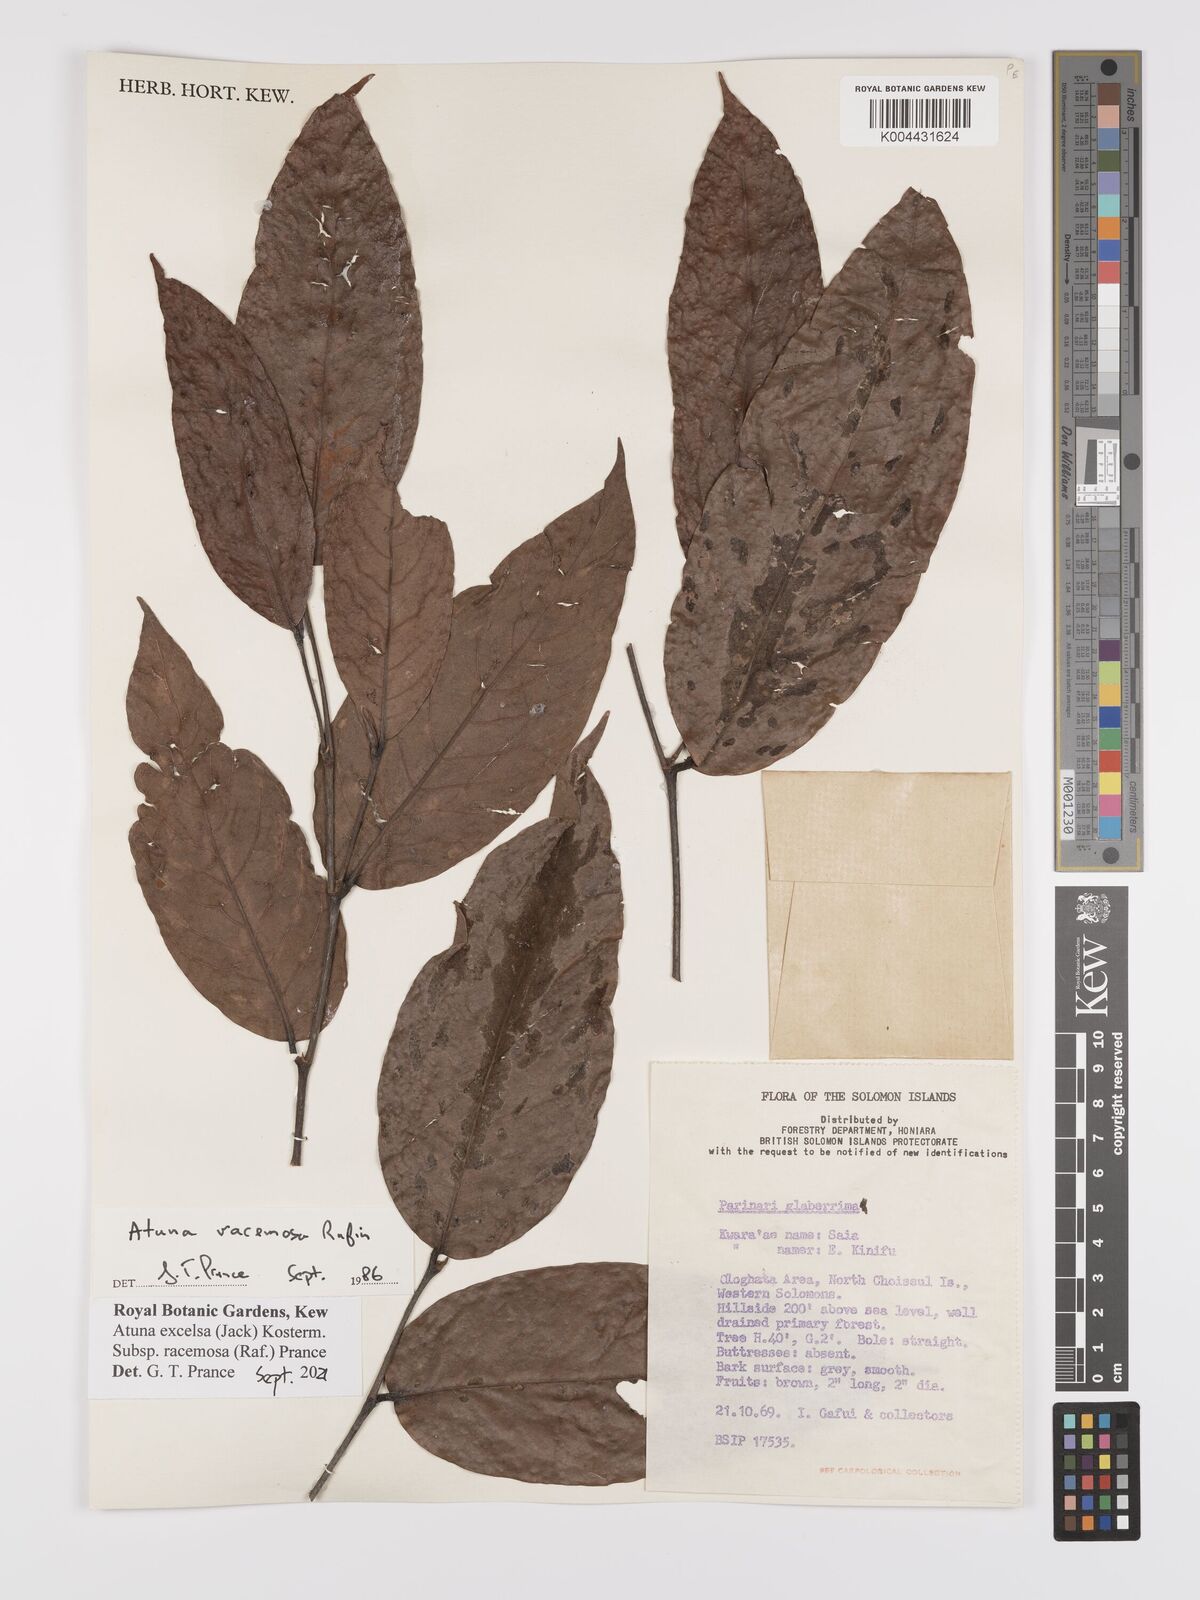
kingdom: Plantae
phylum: Tracheophyta
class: Magnoliopsida
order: Malpighiales
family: Chrysobalanaceae
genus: Atuna
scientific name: Atuna excelsa
